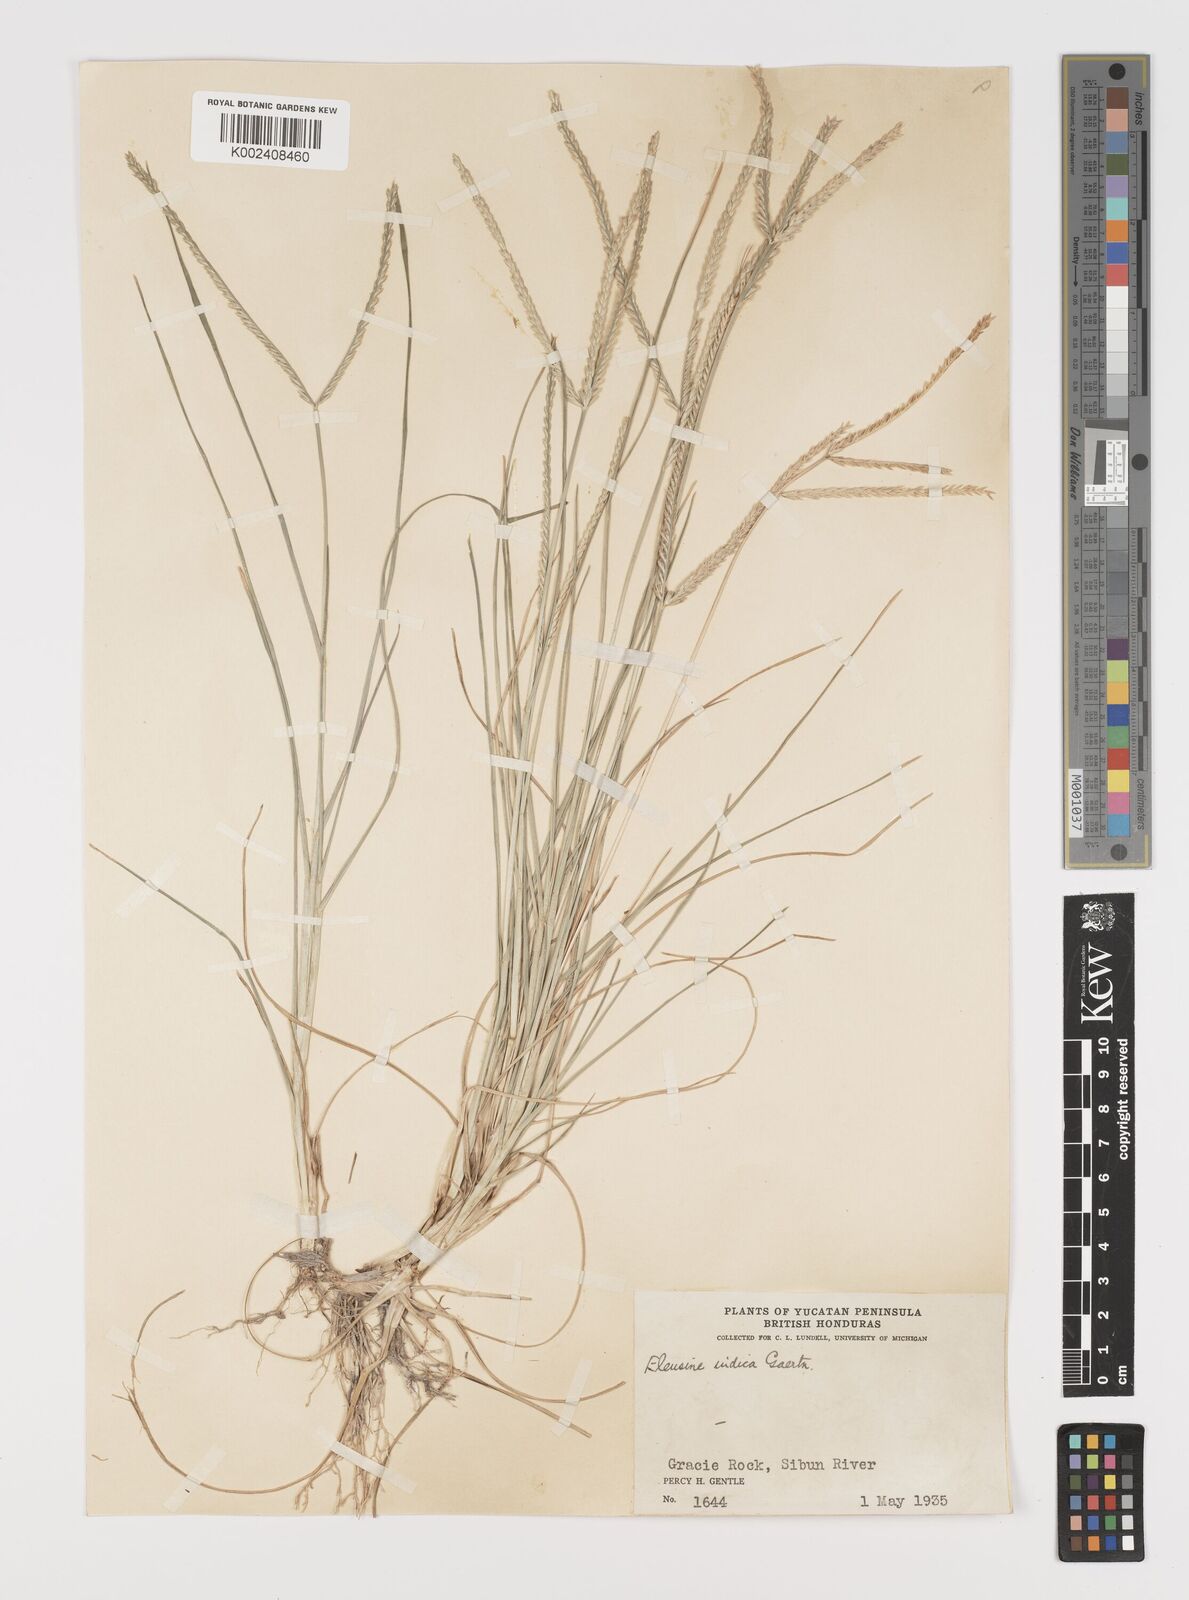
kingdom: Plantae
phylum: Tracheophyta
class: Liliopsida
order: Poales
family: Poaceae
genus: Eleusine
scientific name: Eleusine indica
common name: Yard-grass
